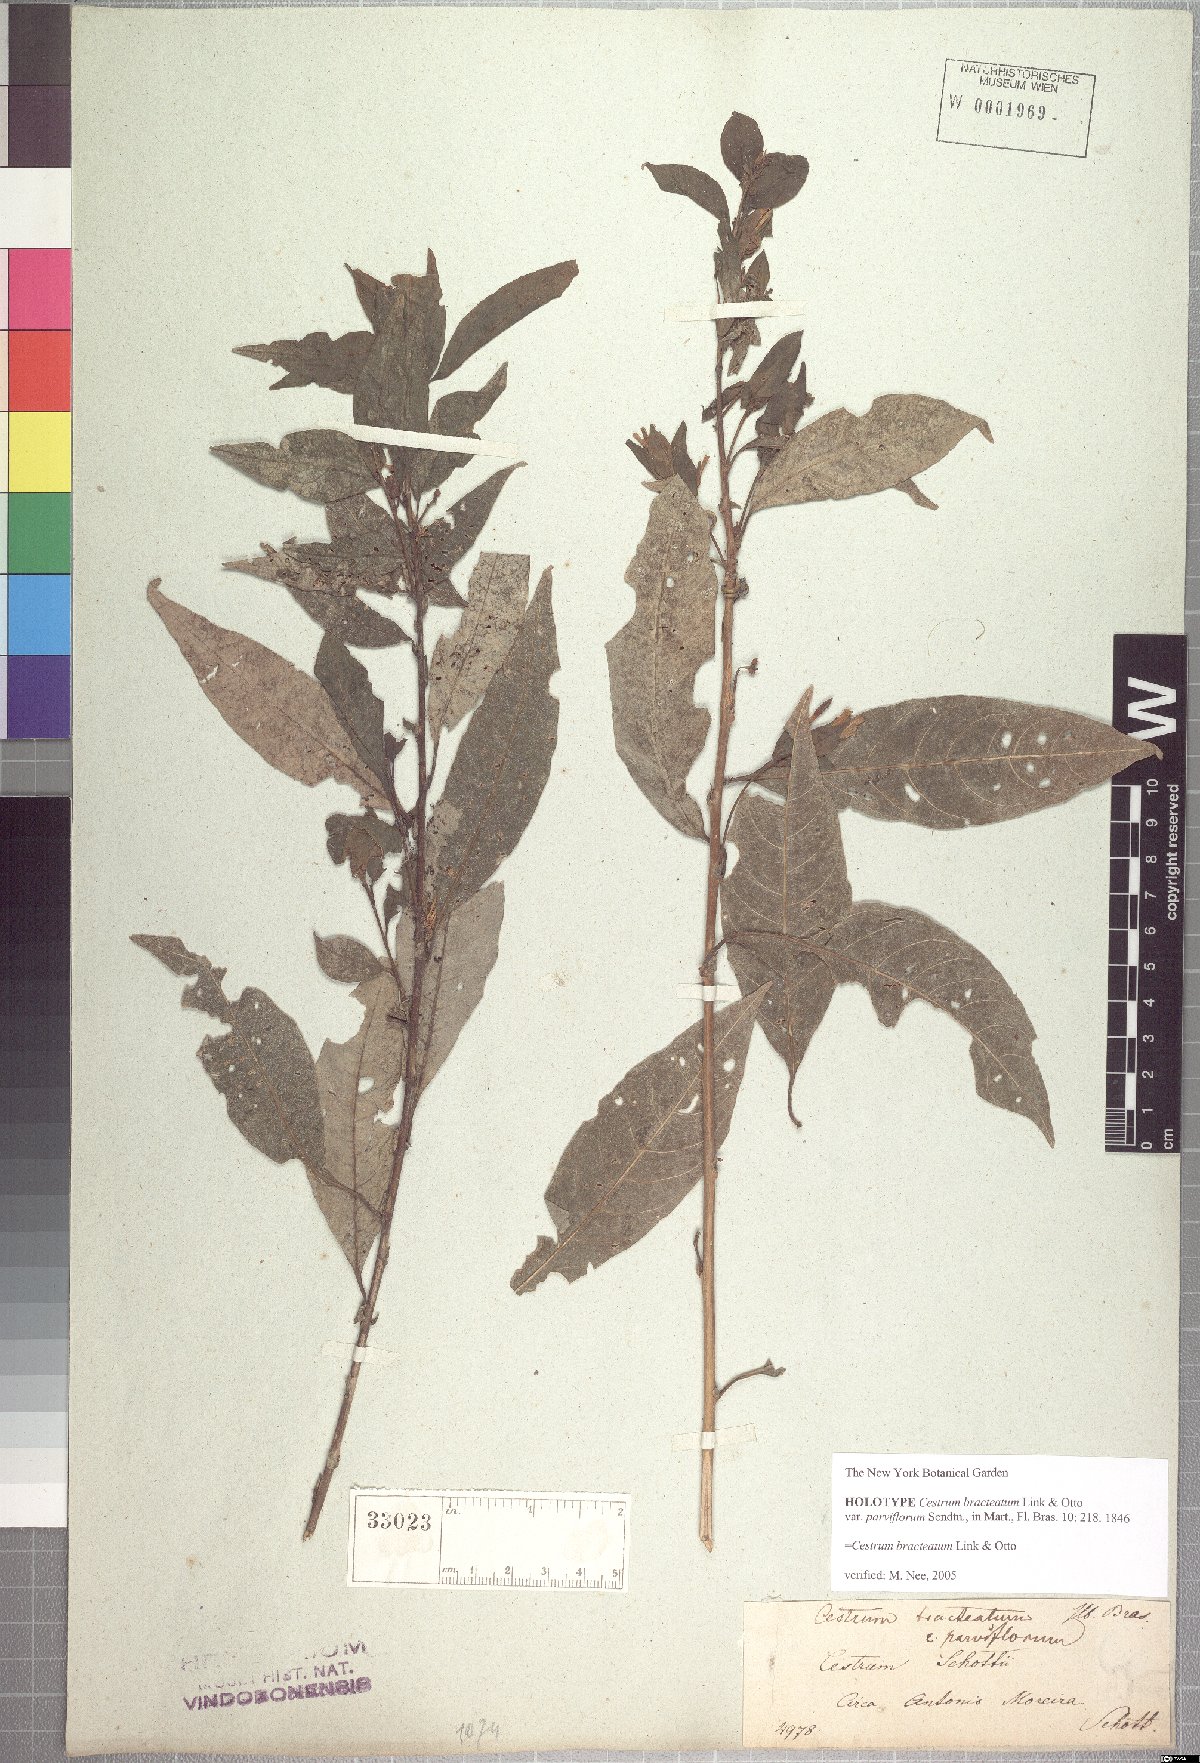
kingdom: Plantae
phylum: Tracheophyta
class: Magnoliopsida
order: Solanales
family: Solanaceae
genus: Cestrum
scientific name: Cestrum bracteatum
